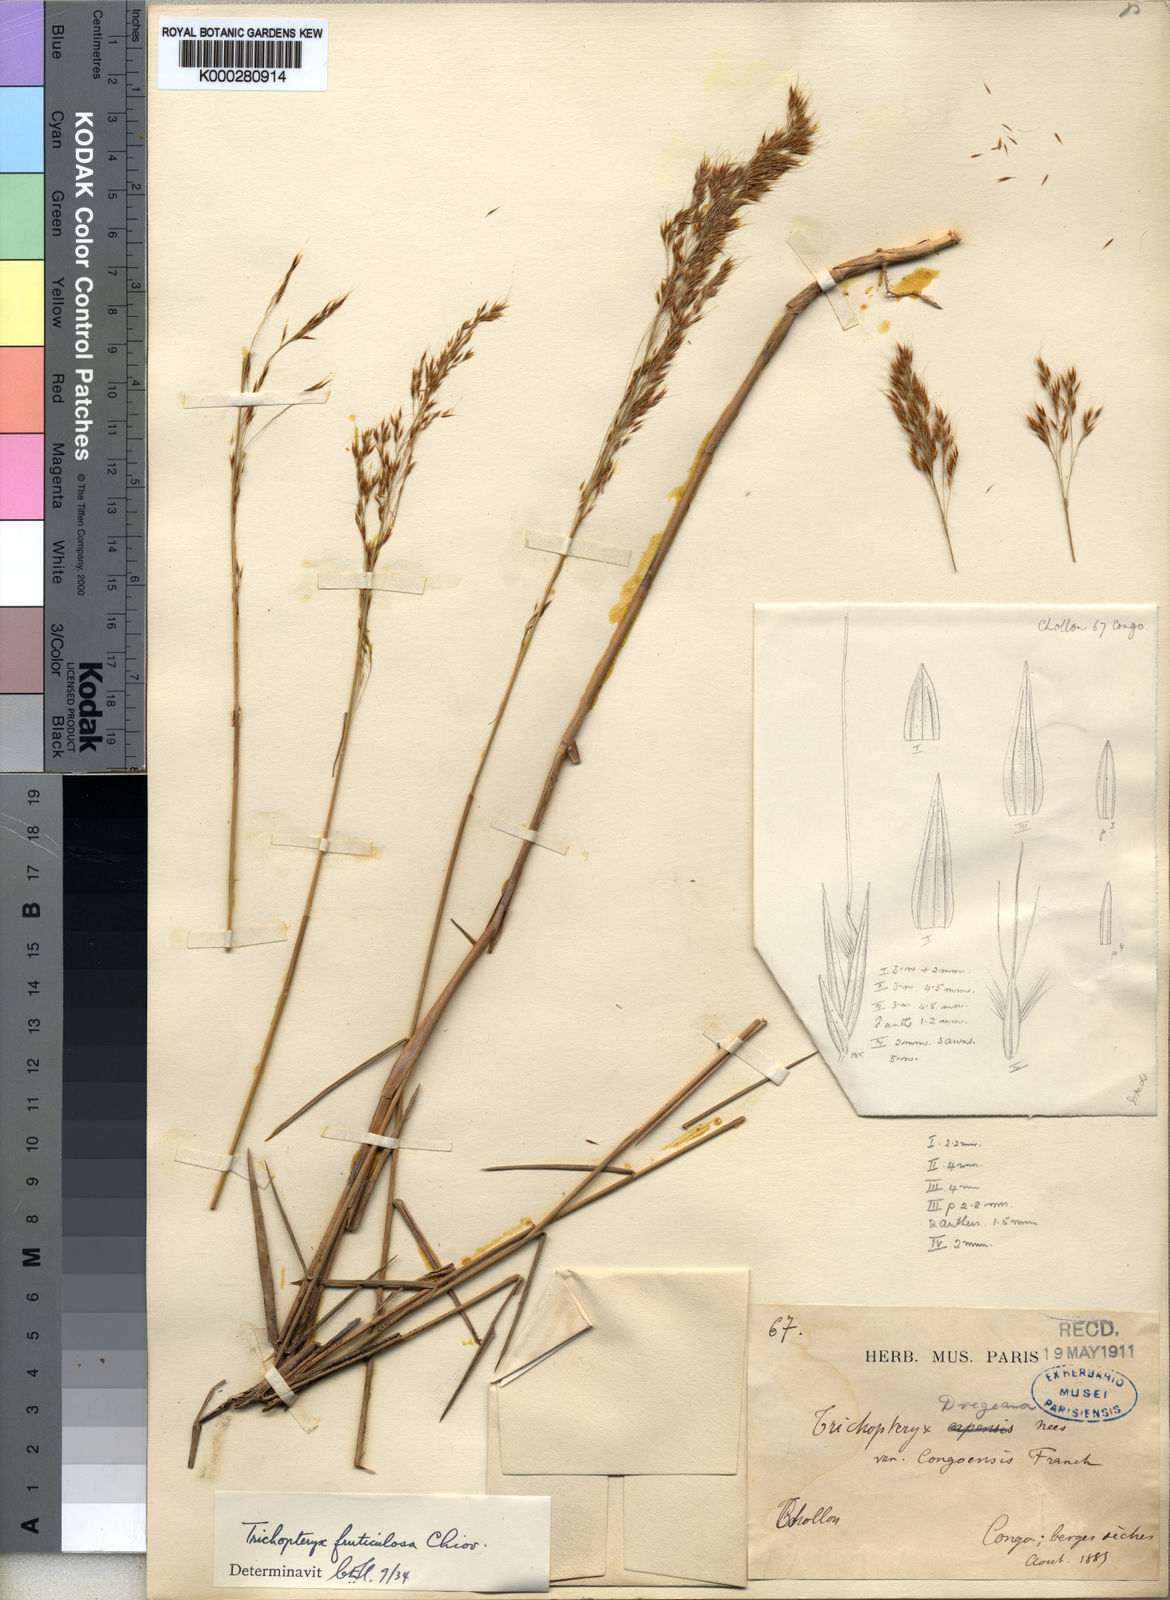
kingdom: Plantae
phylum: Tracheophyta
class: Liliopsida
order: Poales
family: Poaceae
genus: Trichopteryx
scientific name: Trichopteryx fruticulosa
